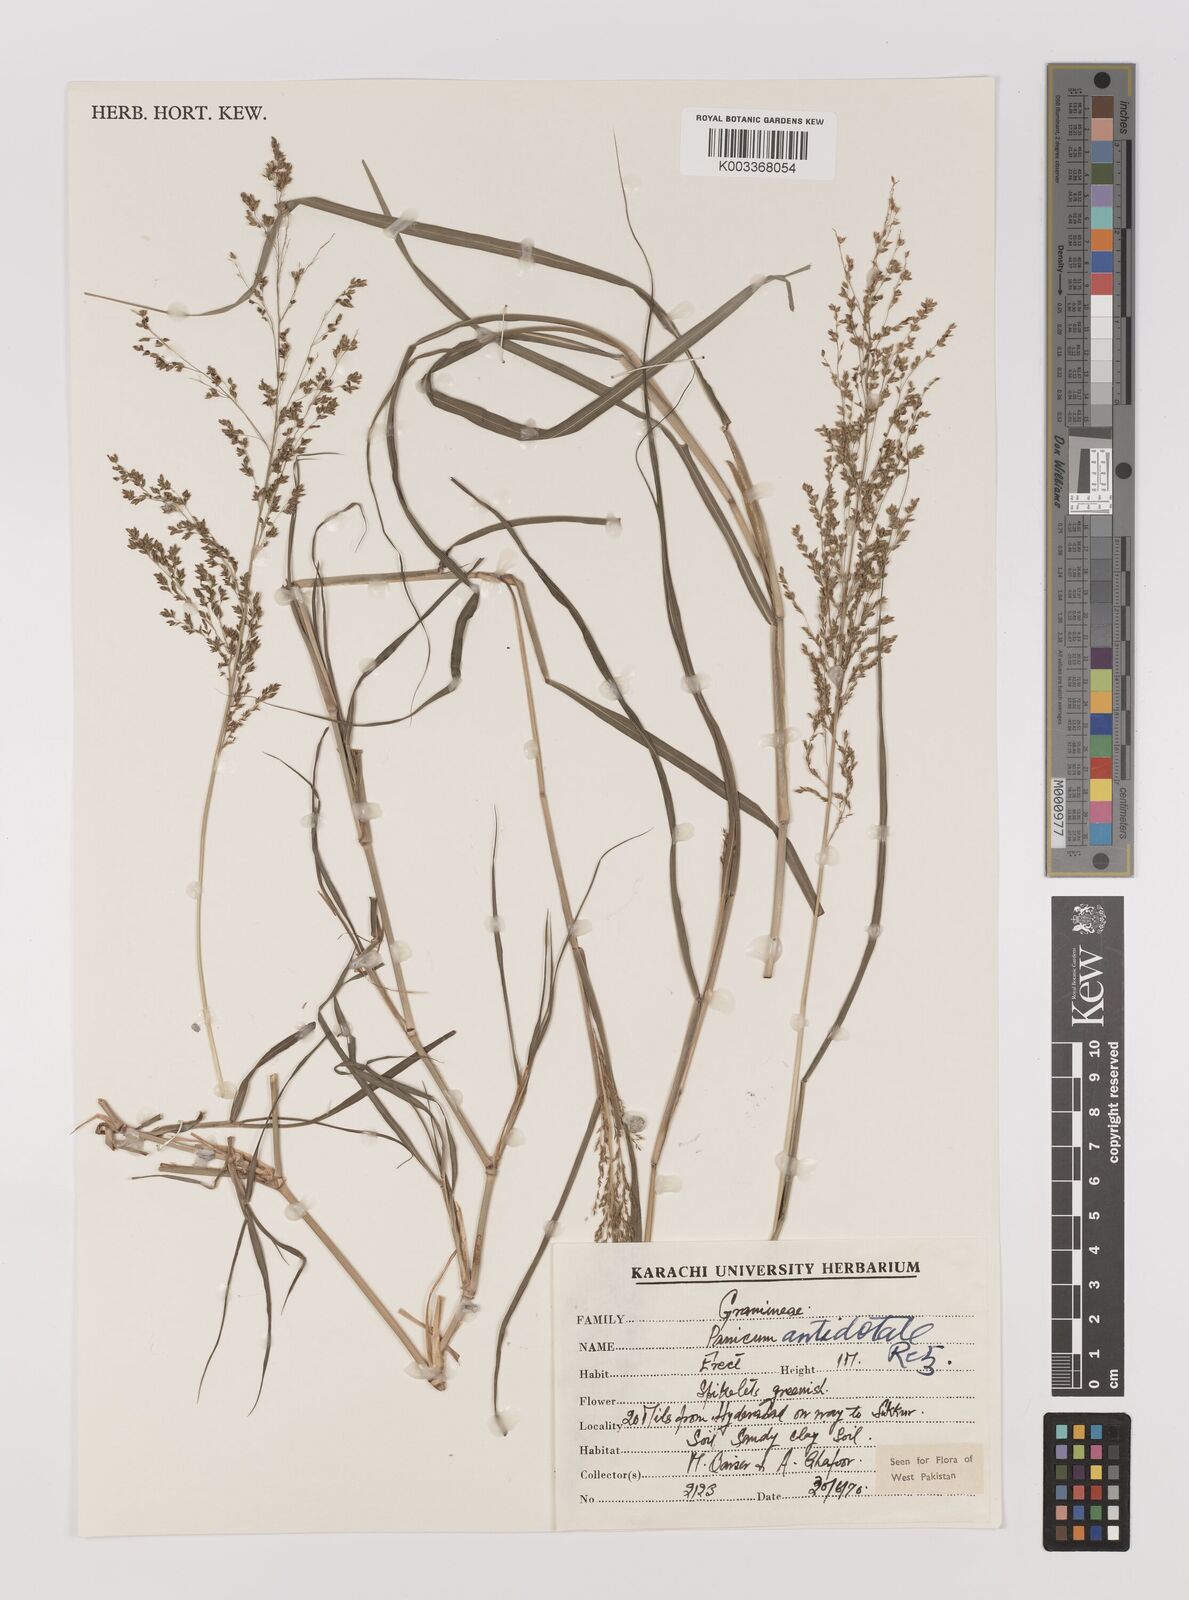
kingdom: Plantae
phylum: Tracheophyta
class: Liliopsida
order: Poales
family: Poaceae
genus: Panicum
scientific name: Panicum antidotale
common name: Blue panicum
